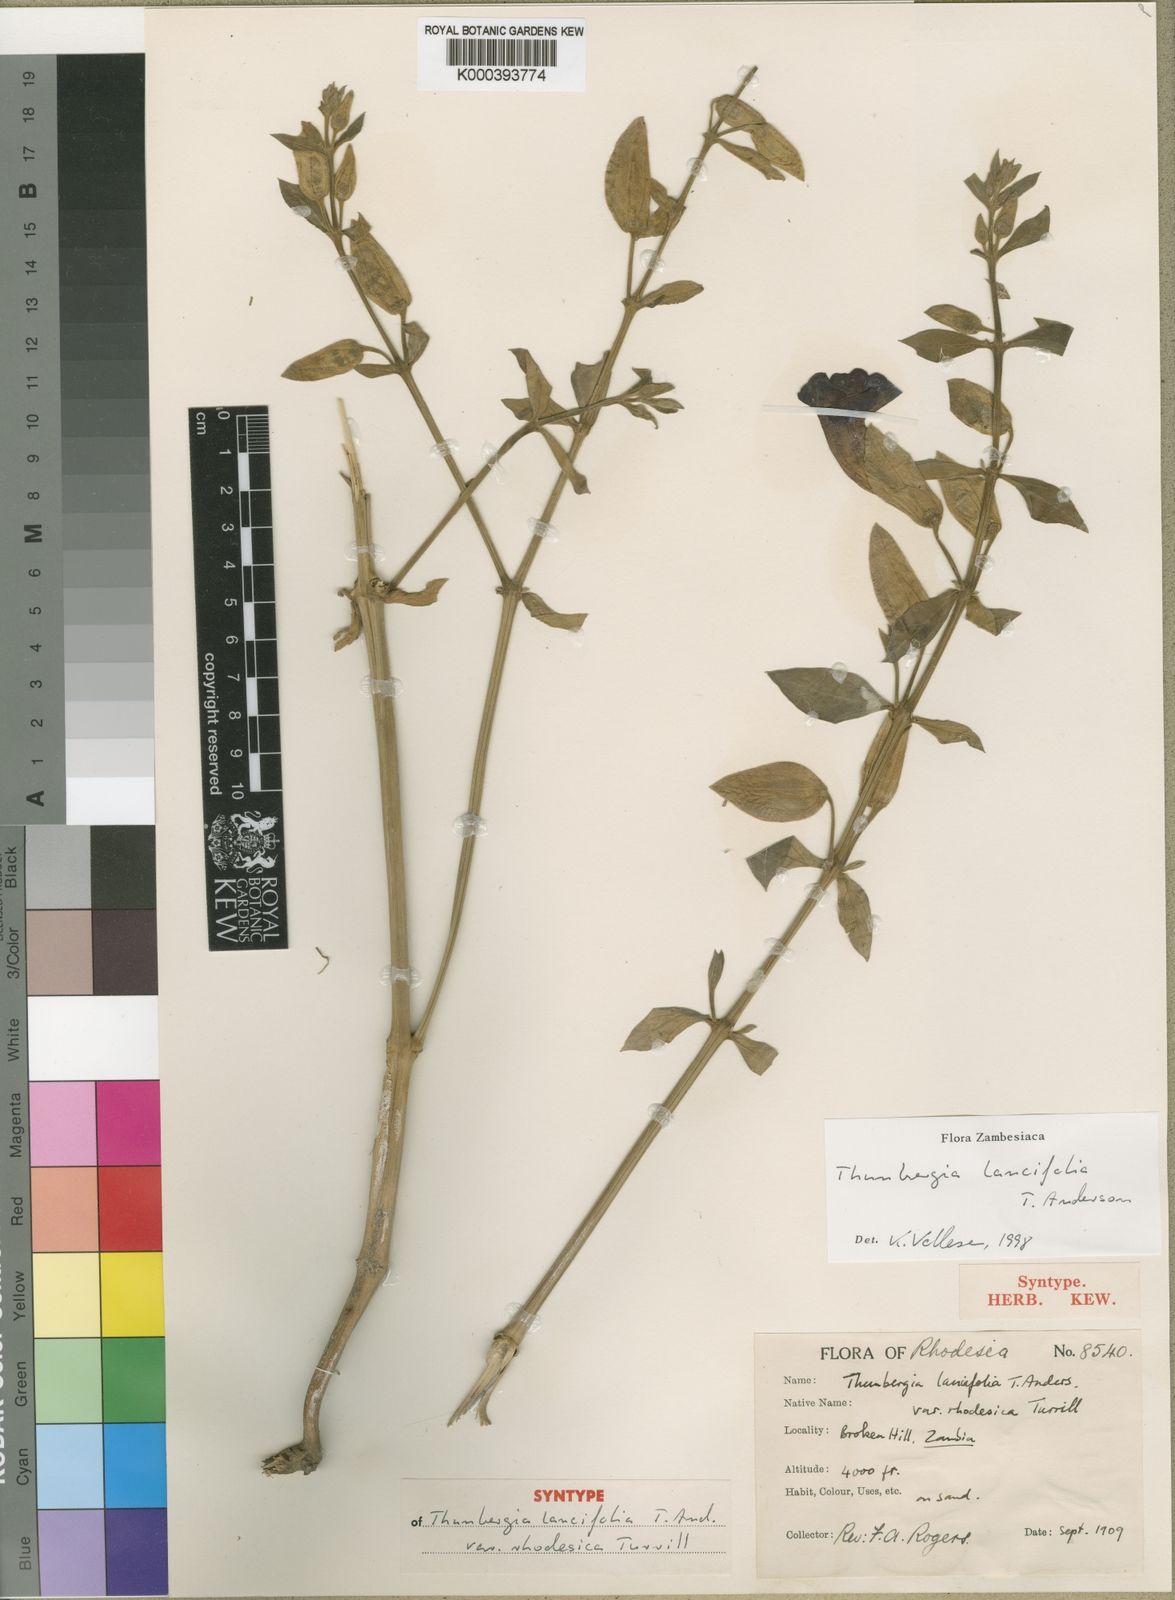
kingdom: Plantae
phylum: Tracheophyta
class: Magnoliopsida
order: Lamiales
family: Acanthaceae
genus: Thunbergia
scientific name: Thunbergia lancifolia
